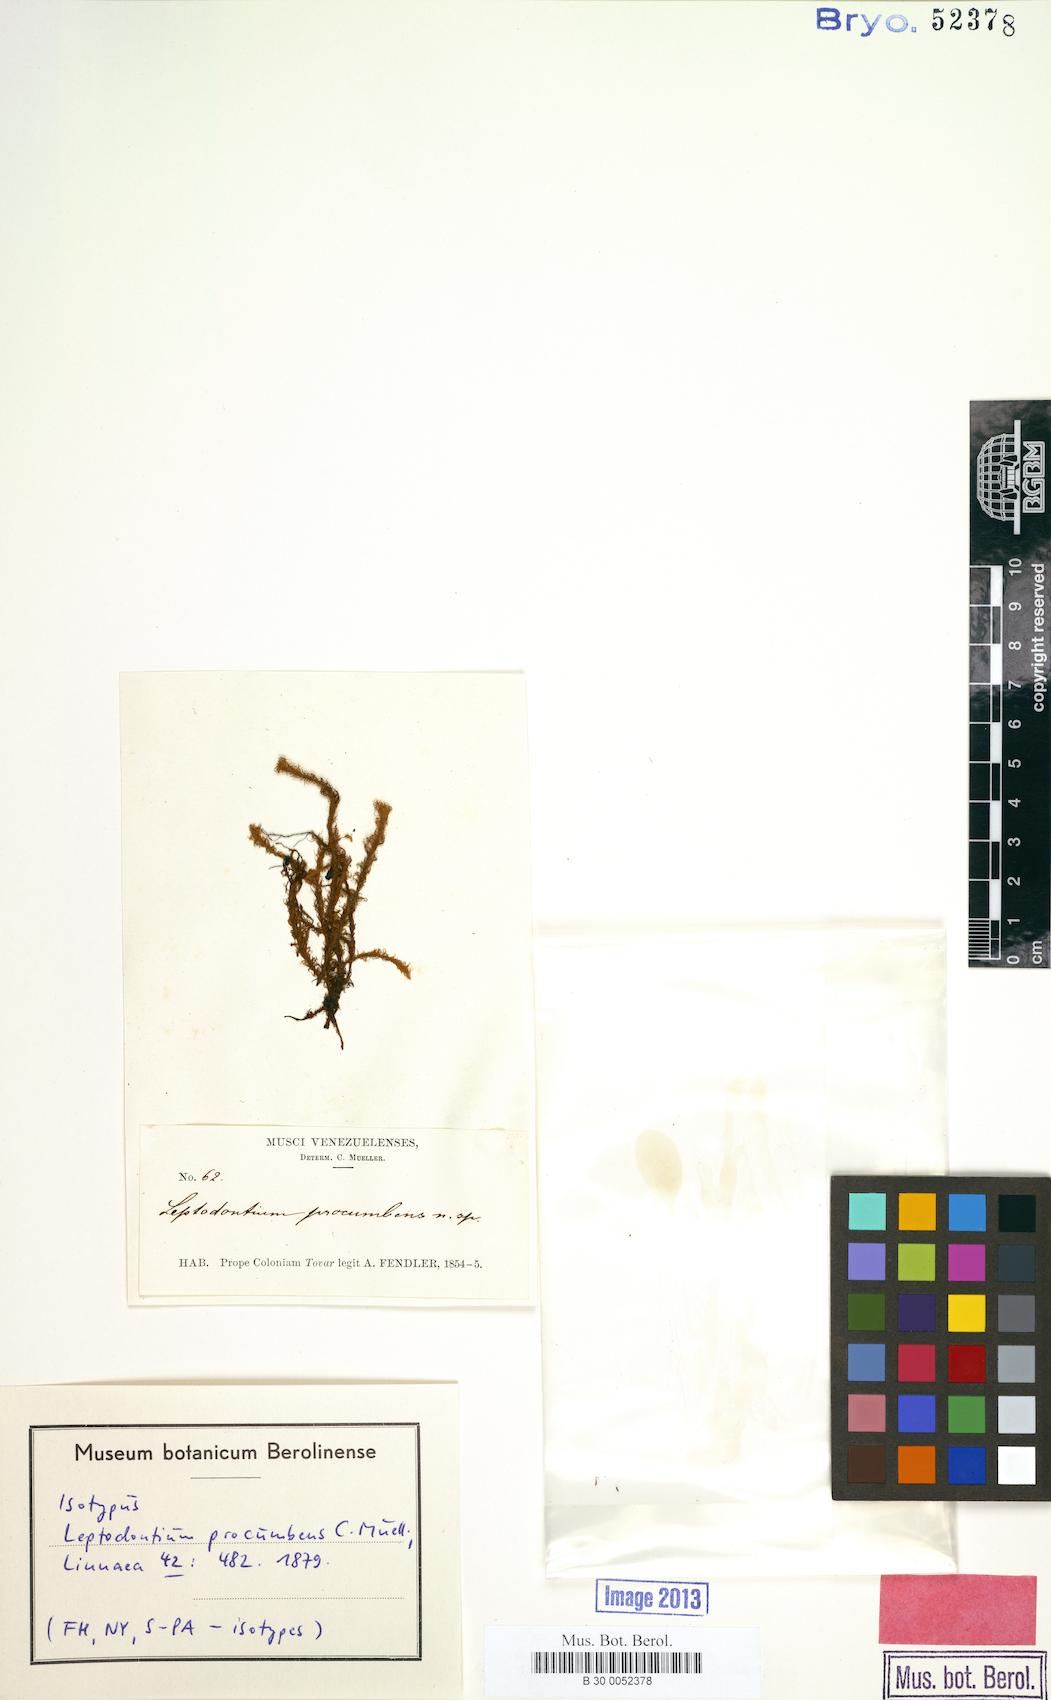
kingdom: Plantae
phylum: Bryophyta
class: Bryopsida
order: Pottiales
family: Pottiaceae
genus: Leptodontium
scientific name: Leptodontium excelsum
